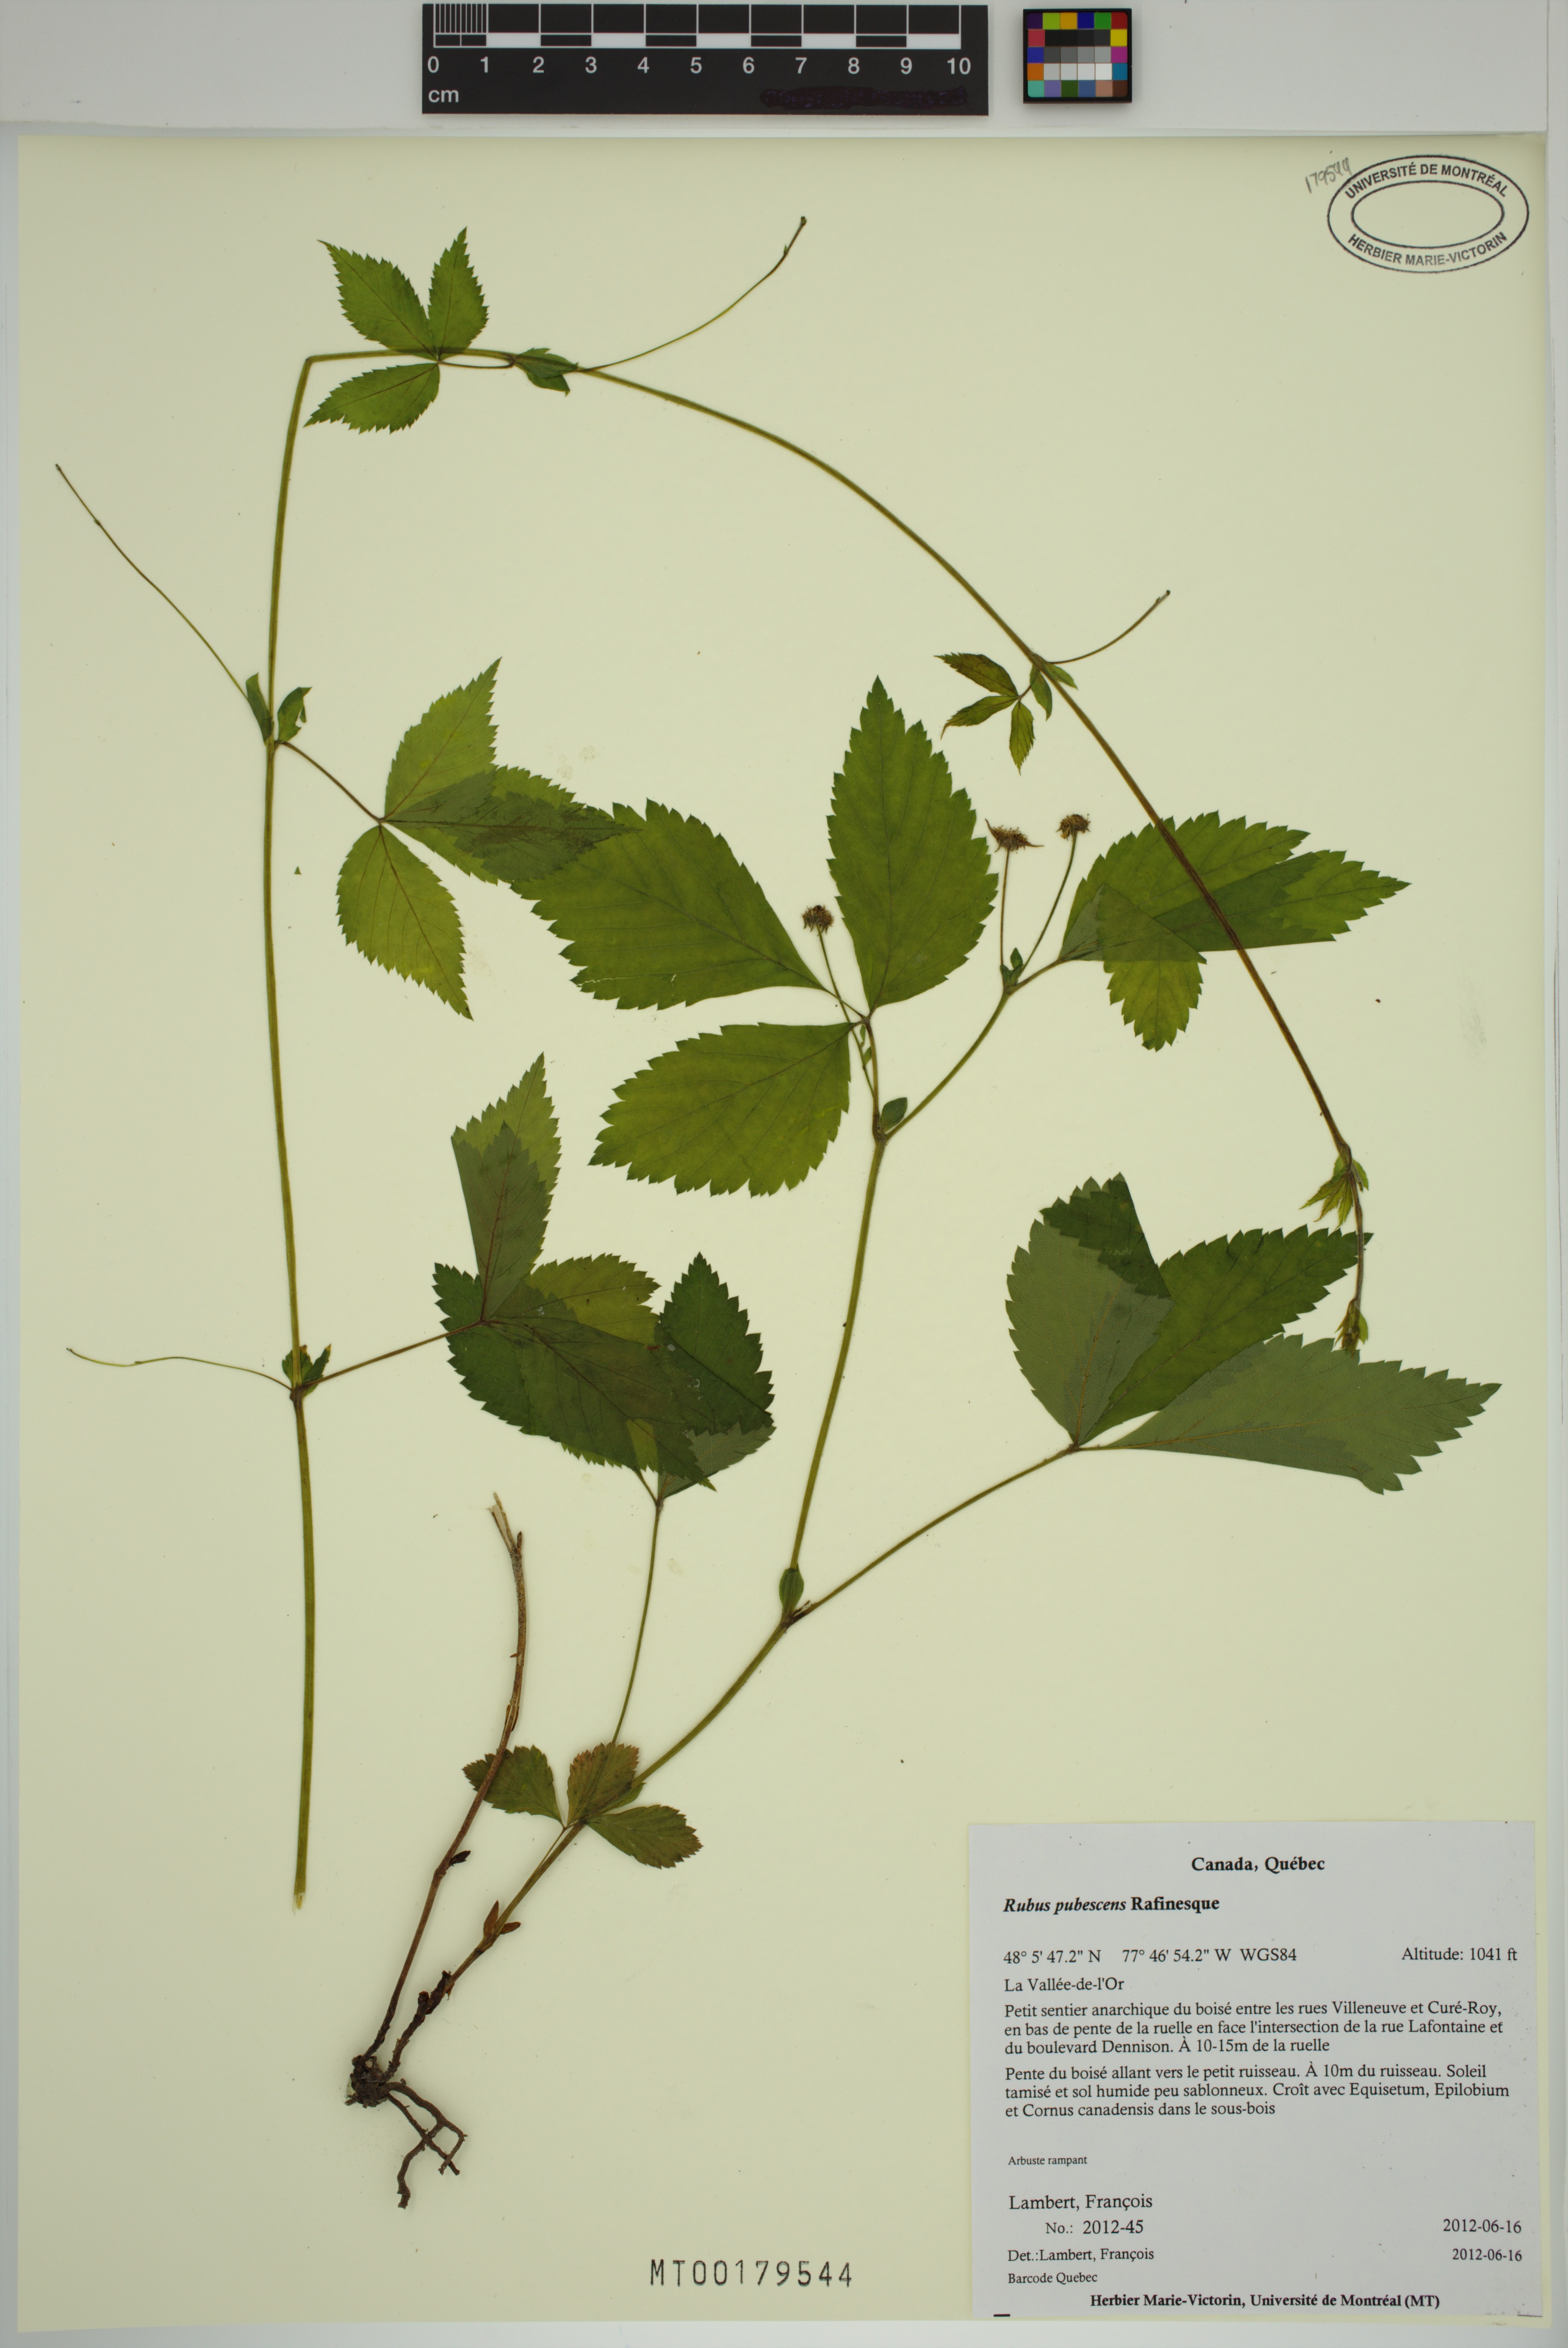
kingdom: Plantae
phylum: Tracheophyta
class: Magnoliopsida
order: Rosales
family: Rosaceae
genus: Rubus
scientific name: Rubus pubescens
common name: Dwarf raspberry
